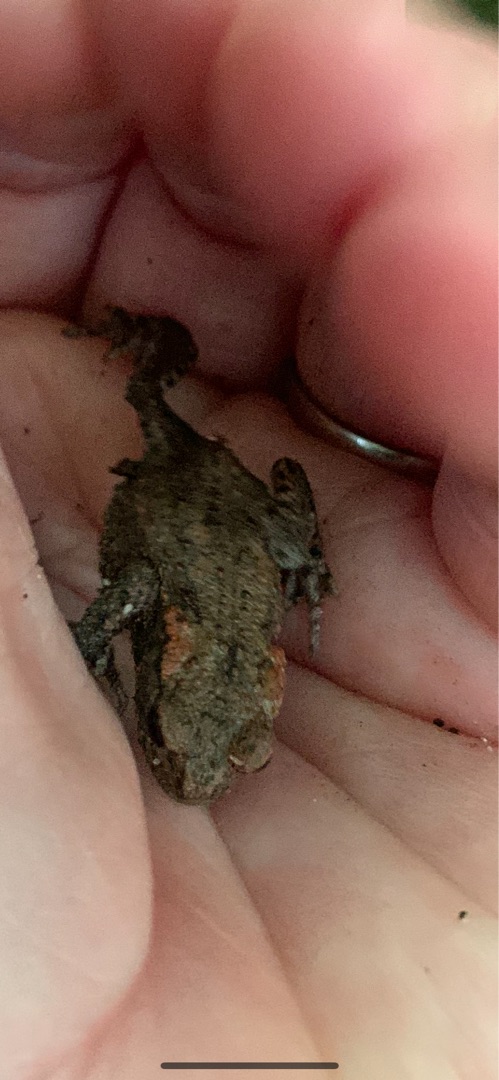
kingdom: Animalia
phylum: Chordata
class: Amphibia
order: Anura
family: Bufonidae
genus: Bufo
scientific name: Bufo bufo
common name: Skrubtudse
